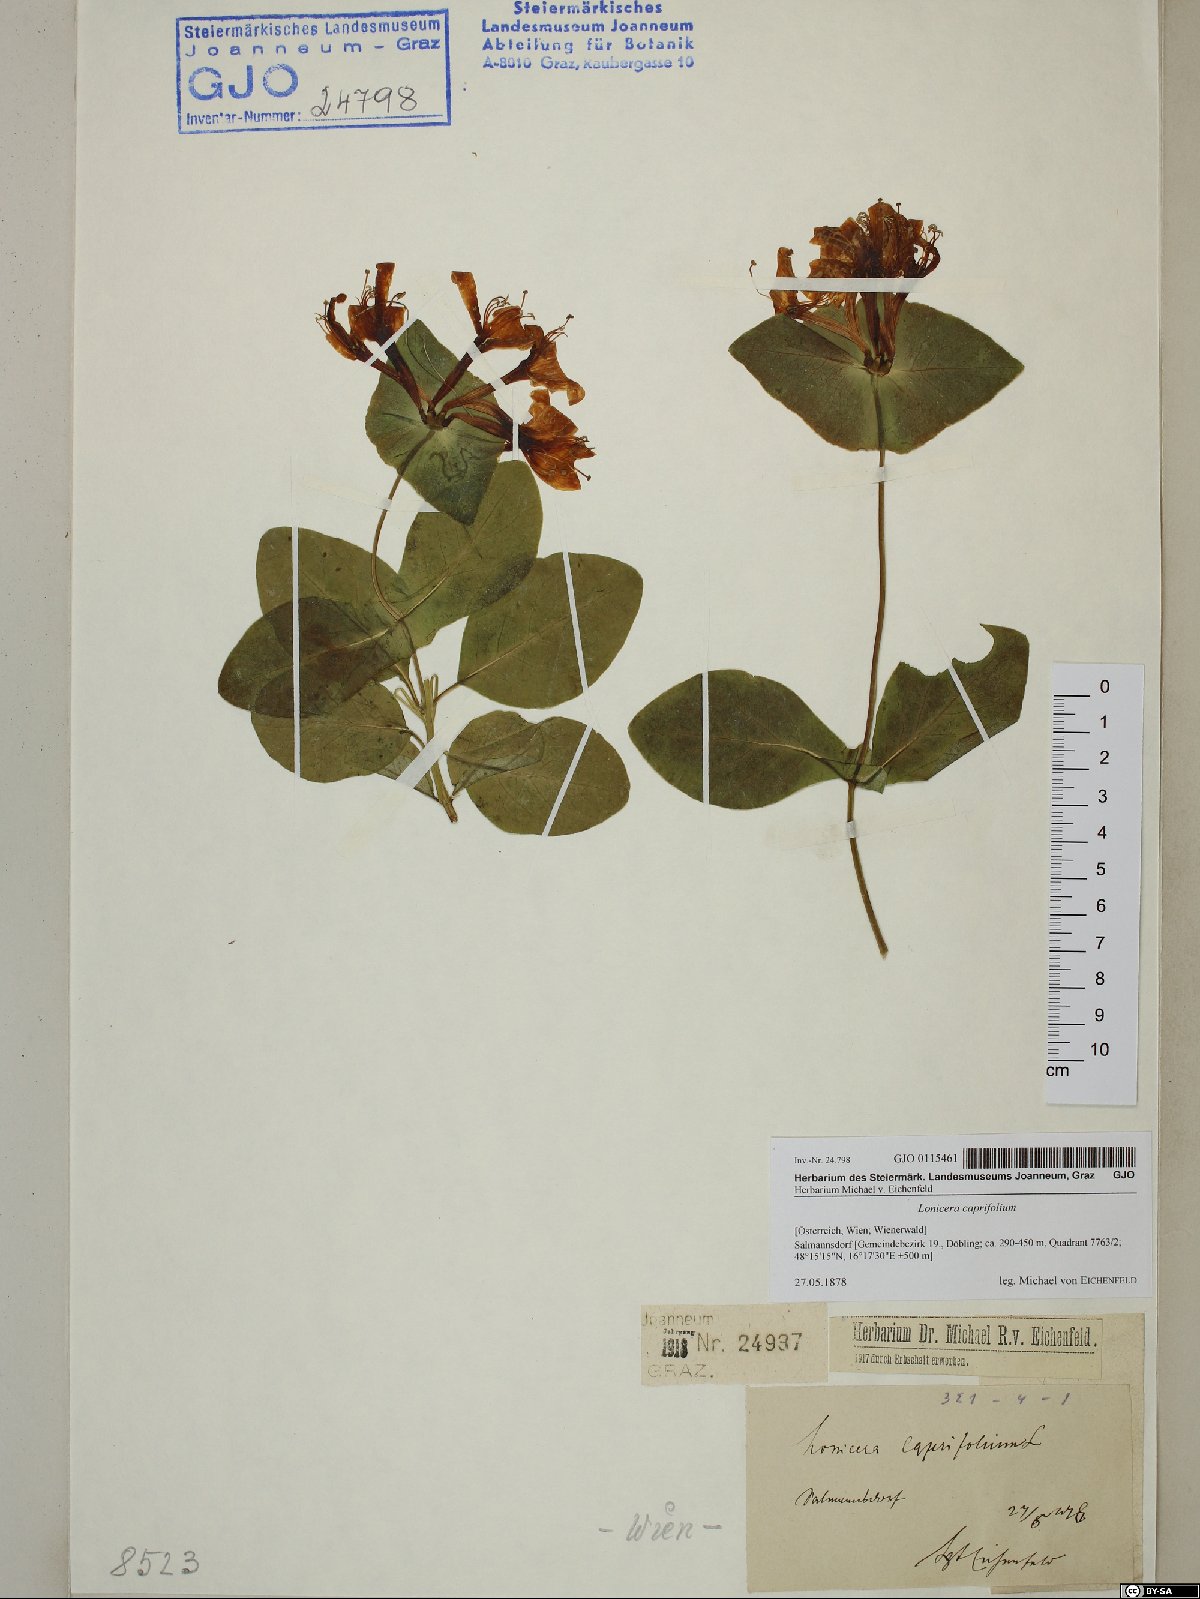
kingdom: Plantae
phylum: Tracheophyta
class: Magnoliopsida
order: Dipsacales
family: Caprifoliaceae
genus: Lonicera
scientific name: Lonicera caprifolium
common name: Perfoliate honeysuckle
